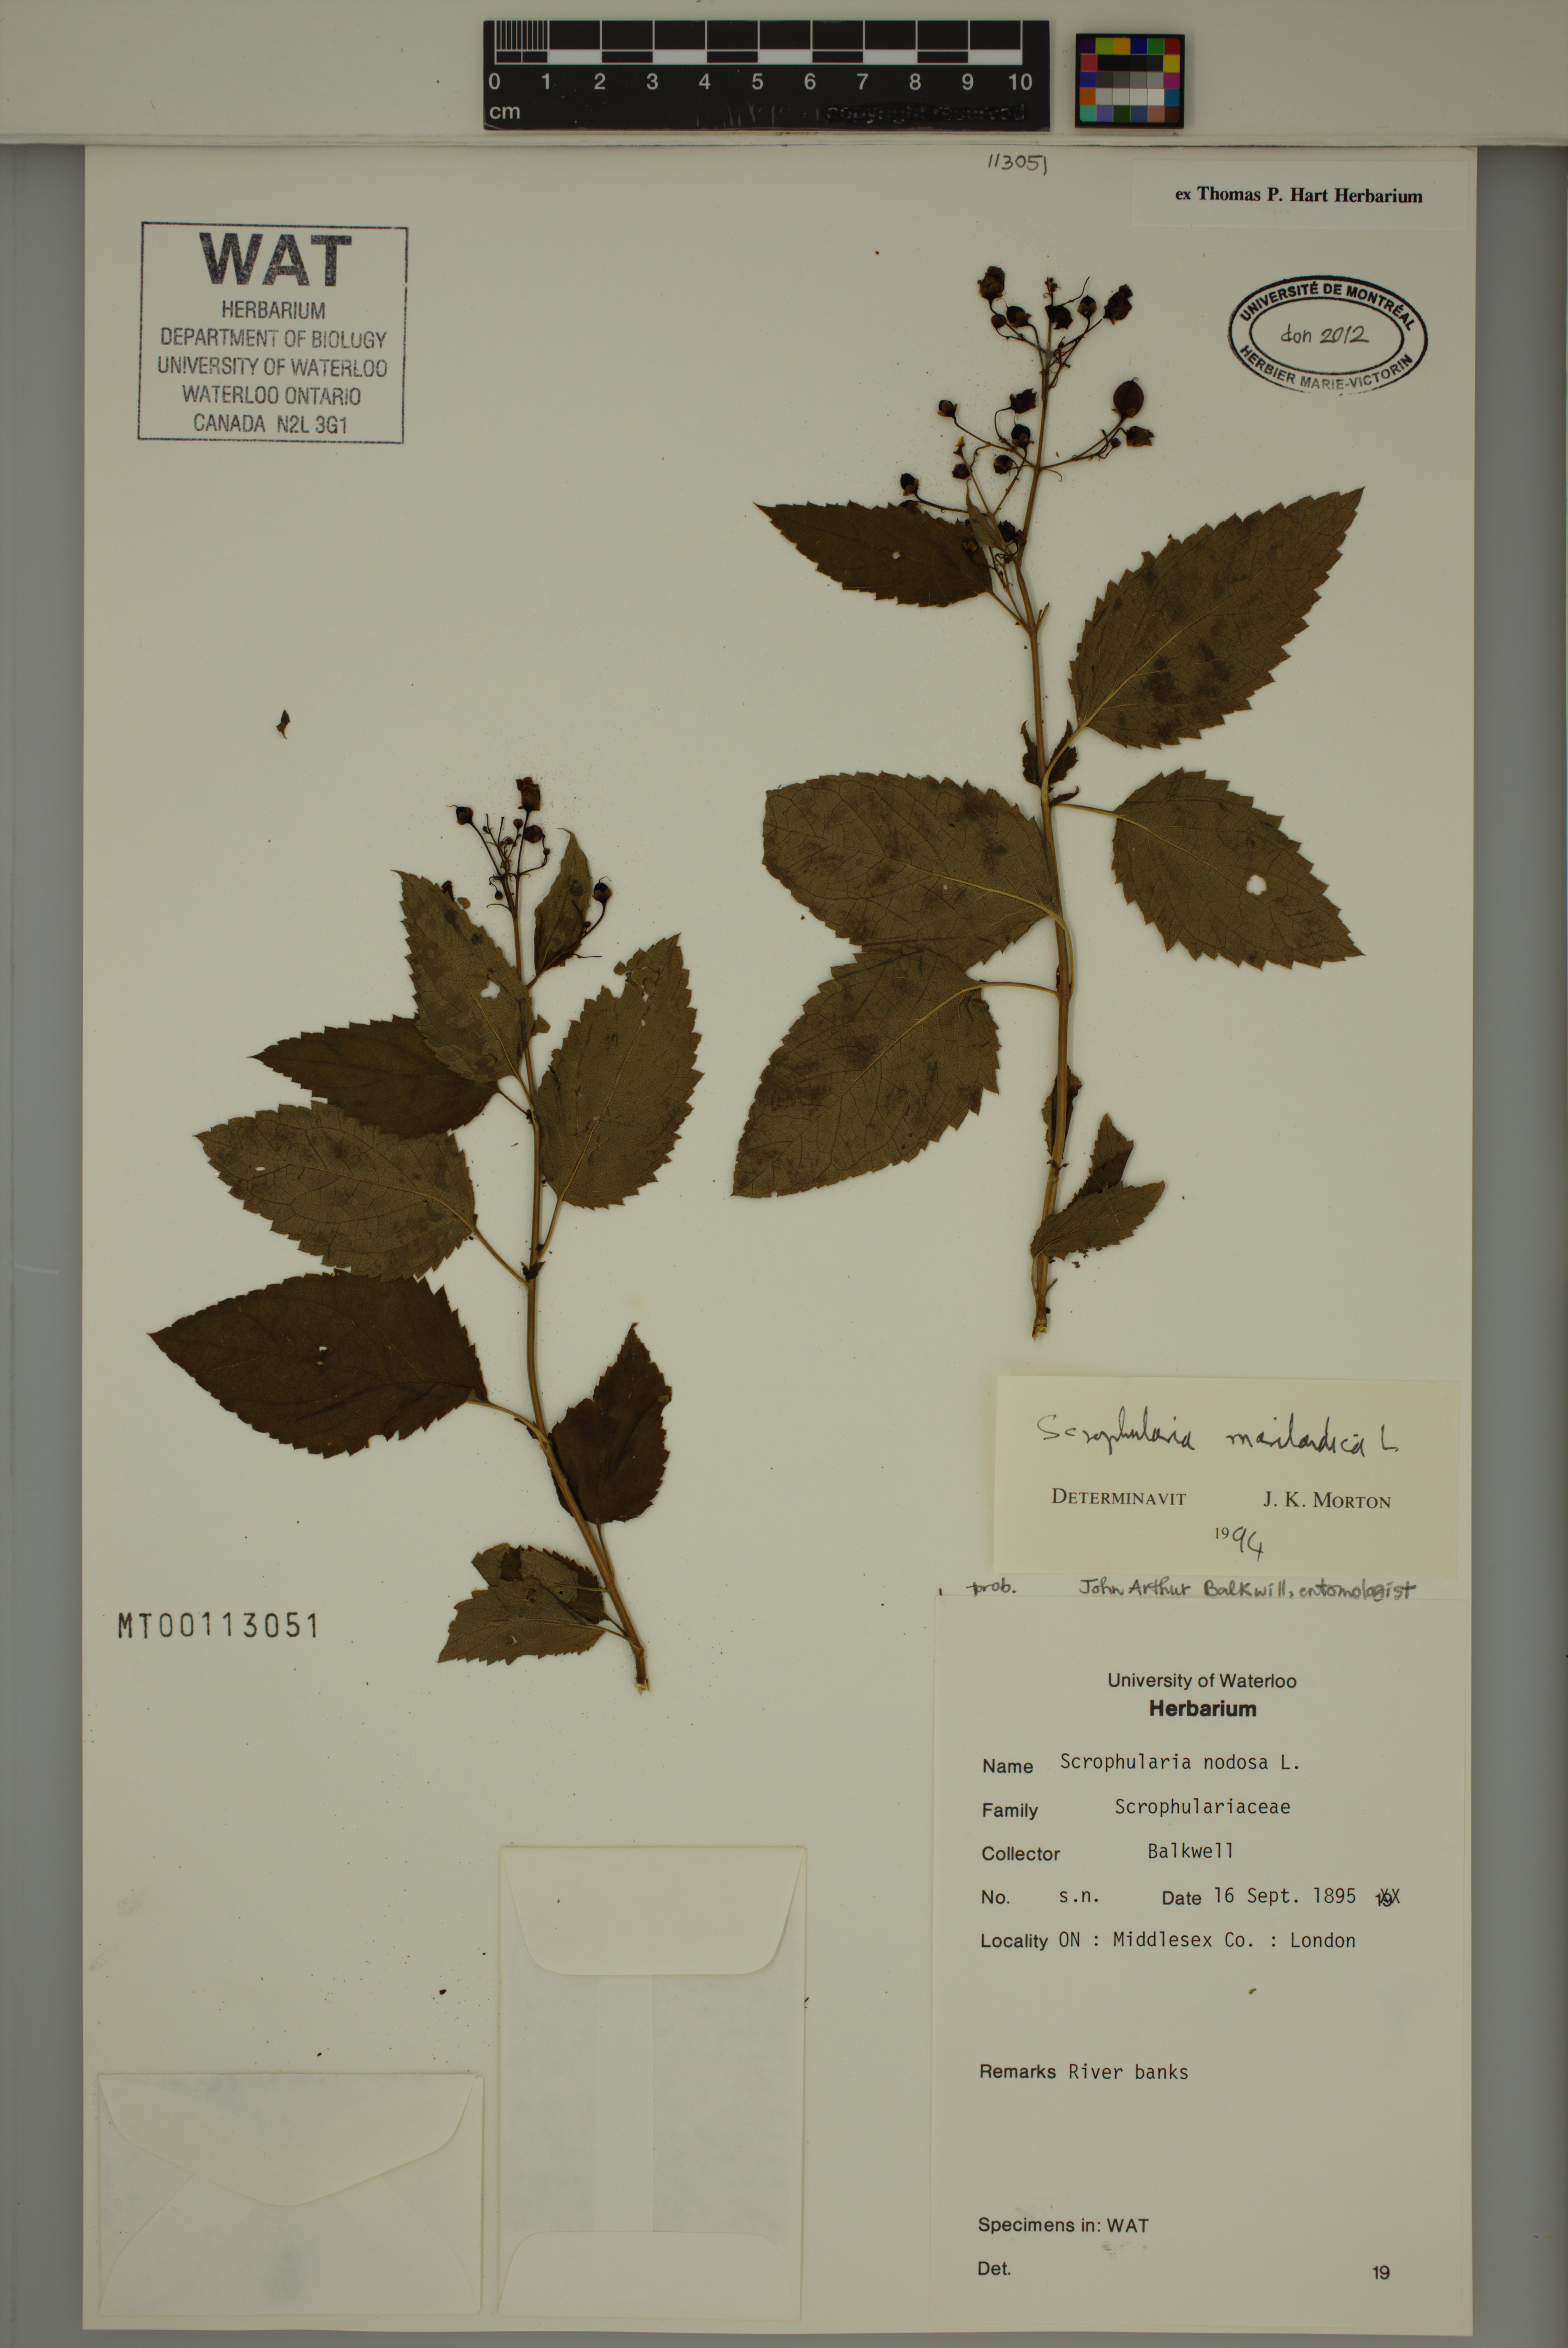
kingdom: Plantae
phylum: Tracheophyta
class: Magnoliopsida
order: Lamiales
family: Scrophulariaceae
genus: Scrophularia
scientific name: Scrophularia marilandica
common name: Eastern figwort
